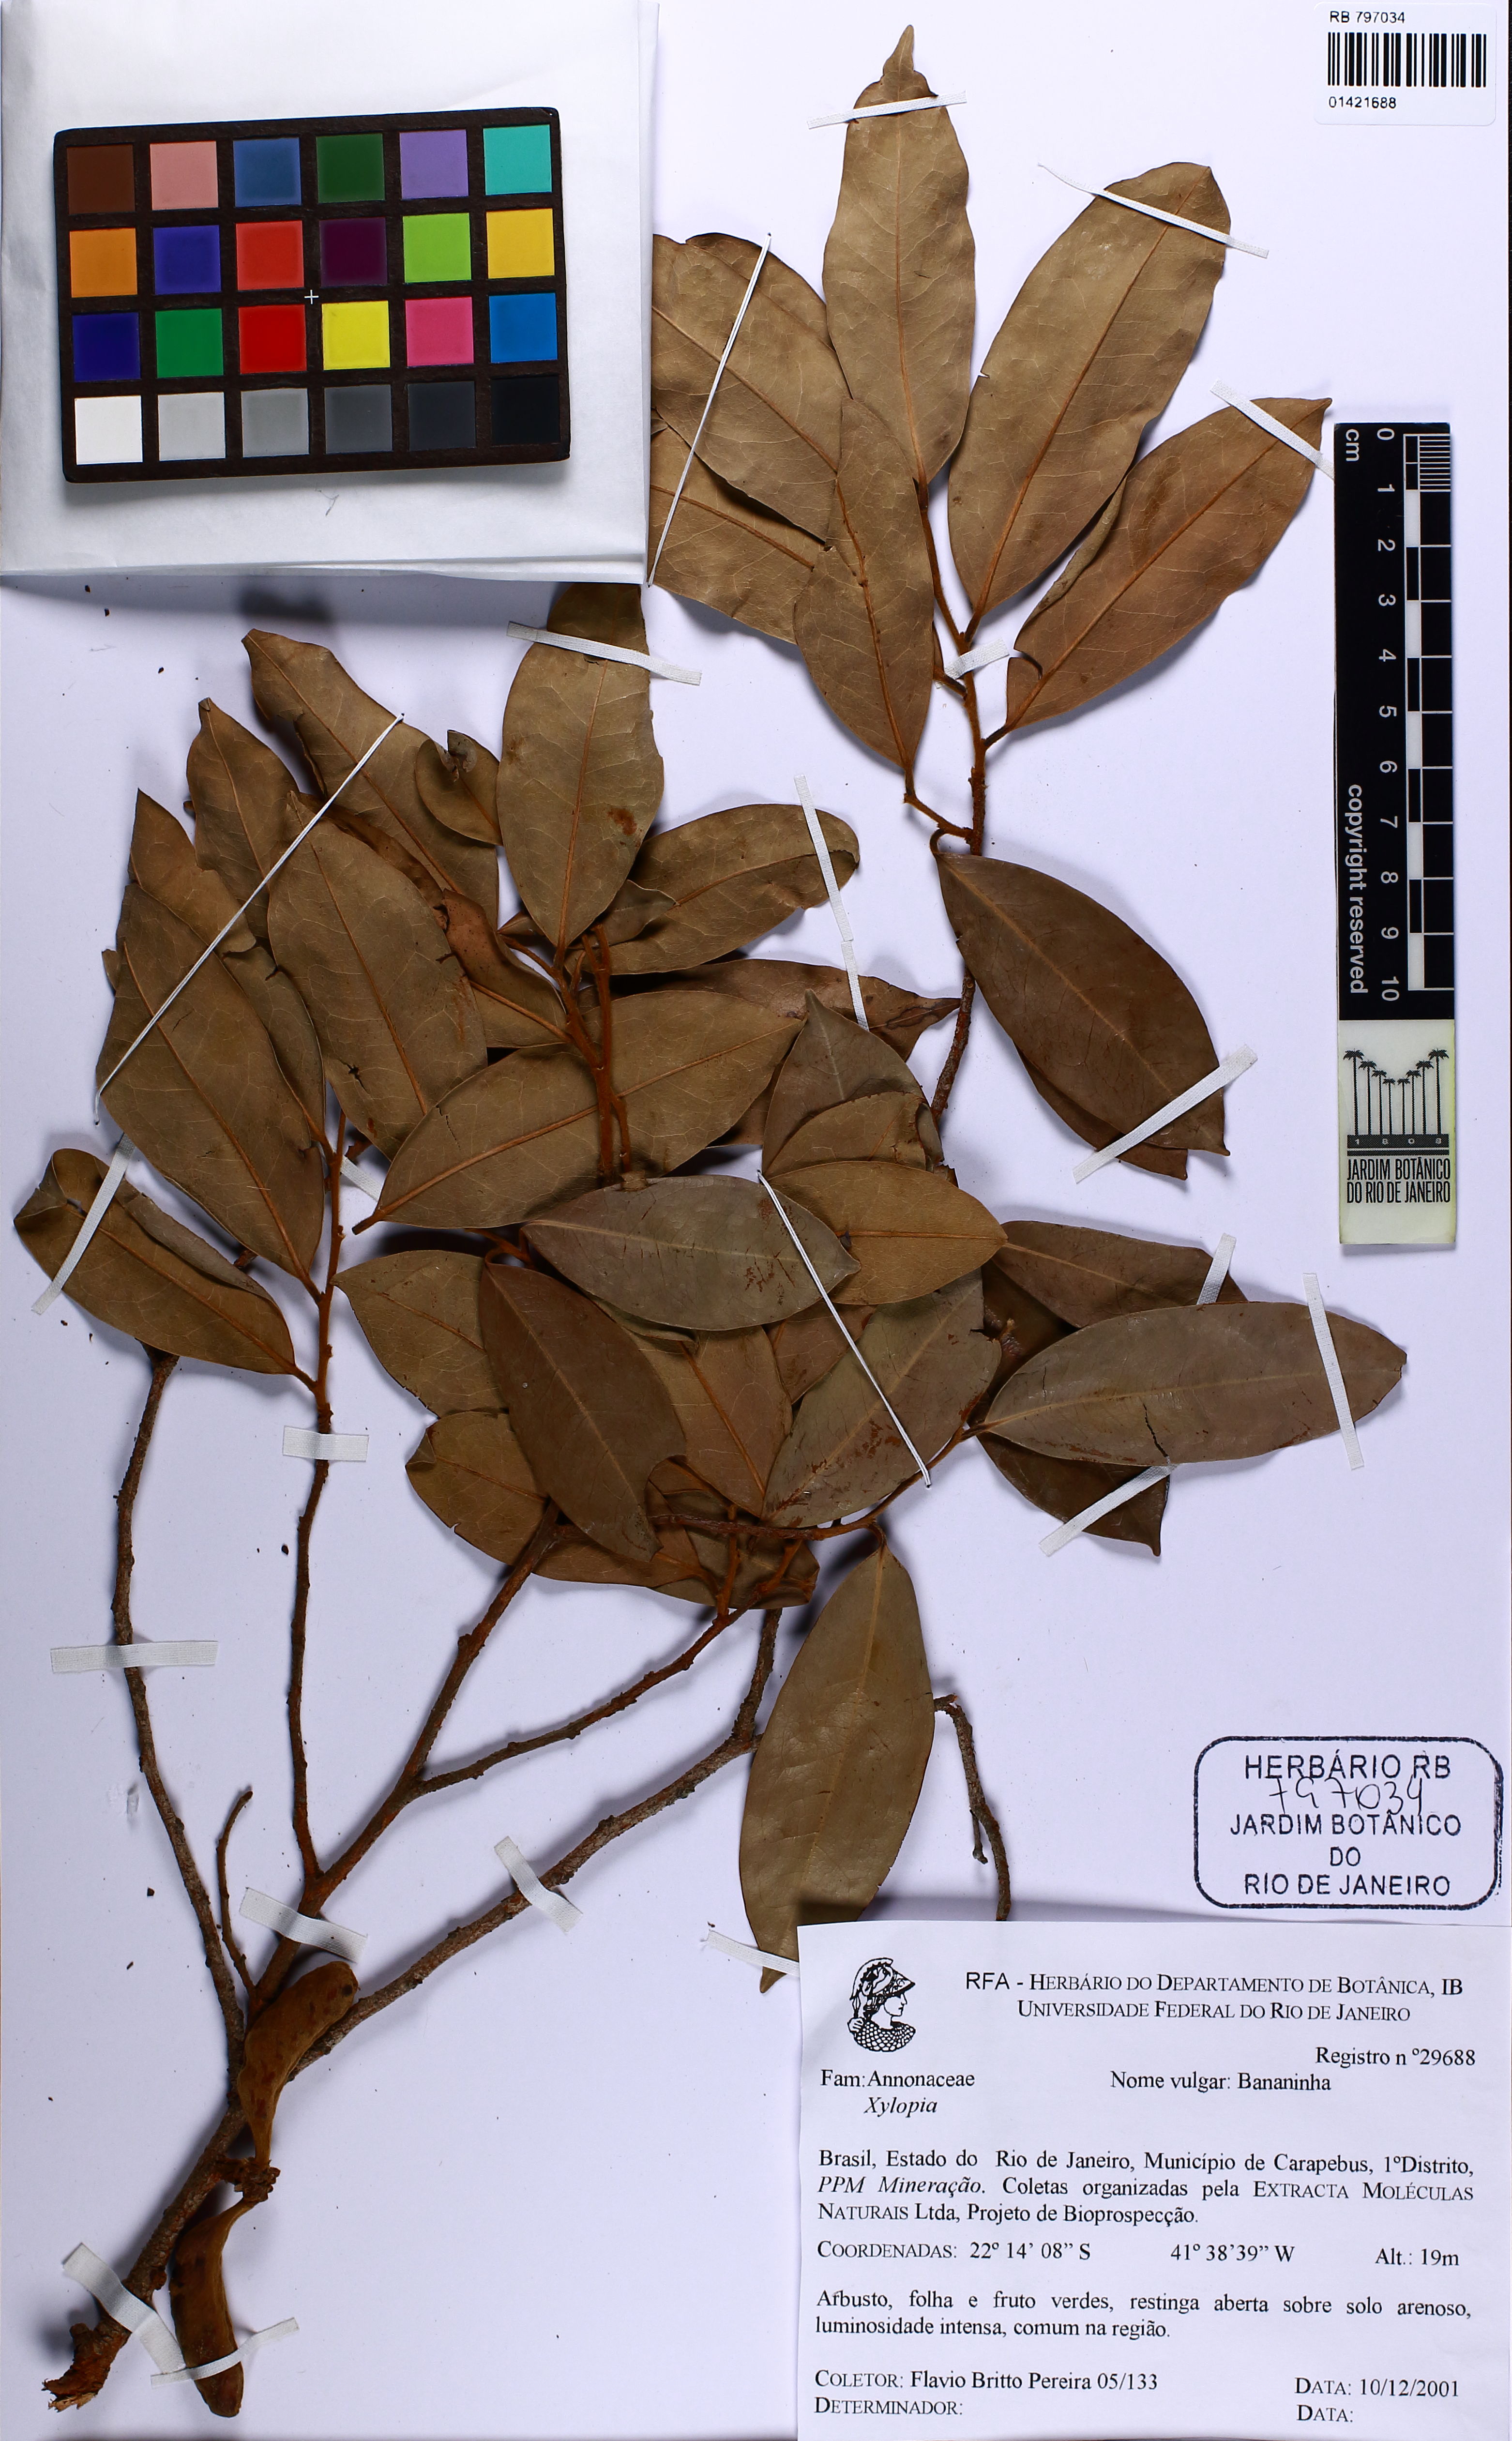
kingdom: Plantae
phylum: Tracheophyta
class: Magnoliopsida
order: Magnoliales
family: Annonaceae
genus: Xylopia
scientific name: Xylopia
